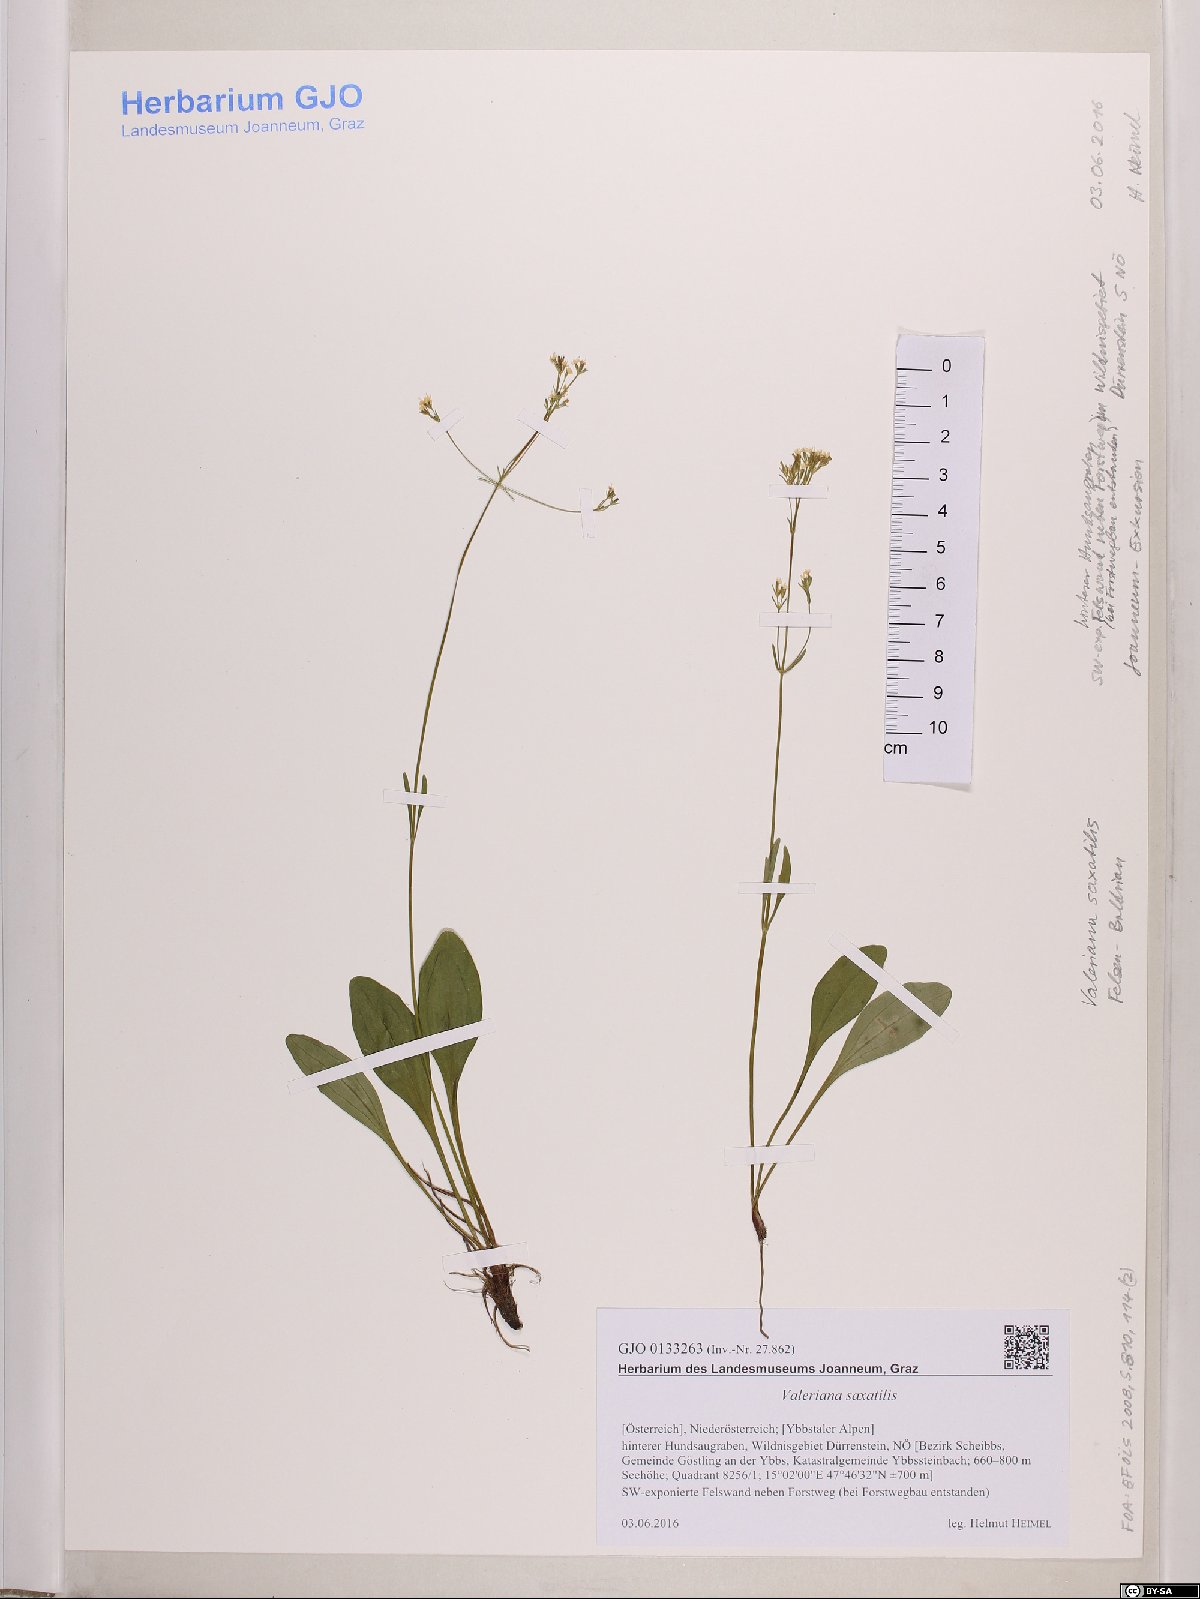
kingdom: Plantae
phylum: Tracheophyta
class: Magnoliopsida
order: Dipsacales
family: Caprifoliaceae
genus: Valeriana
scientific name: Valeriana saxatilis
